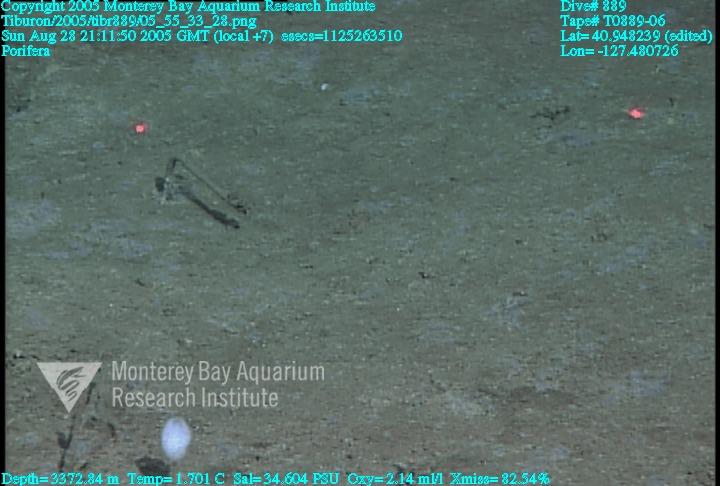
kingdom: Animalia
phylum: Porifera
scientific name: Porifera
